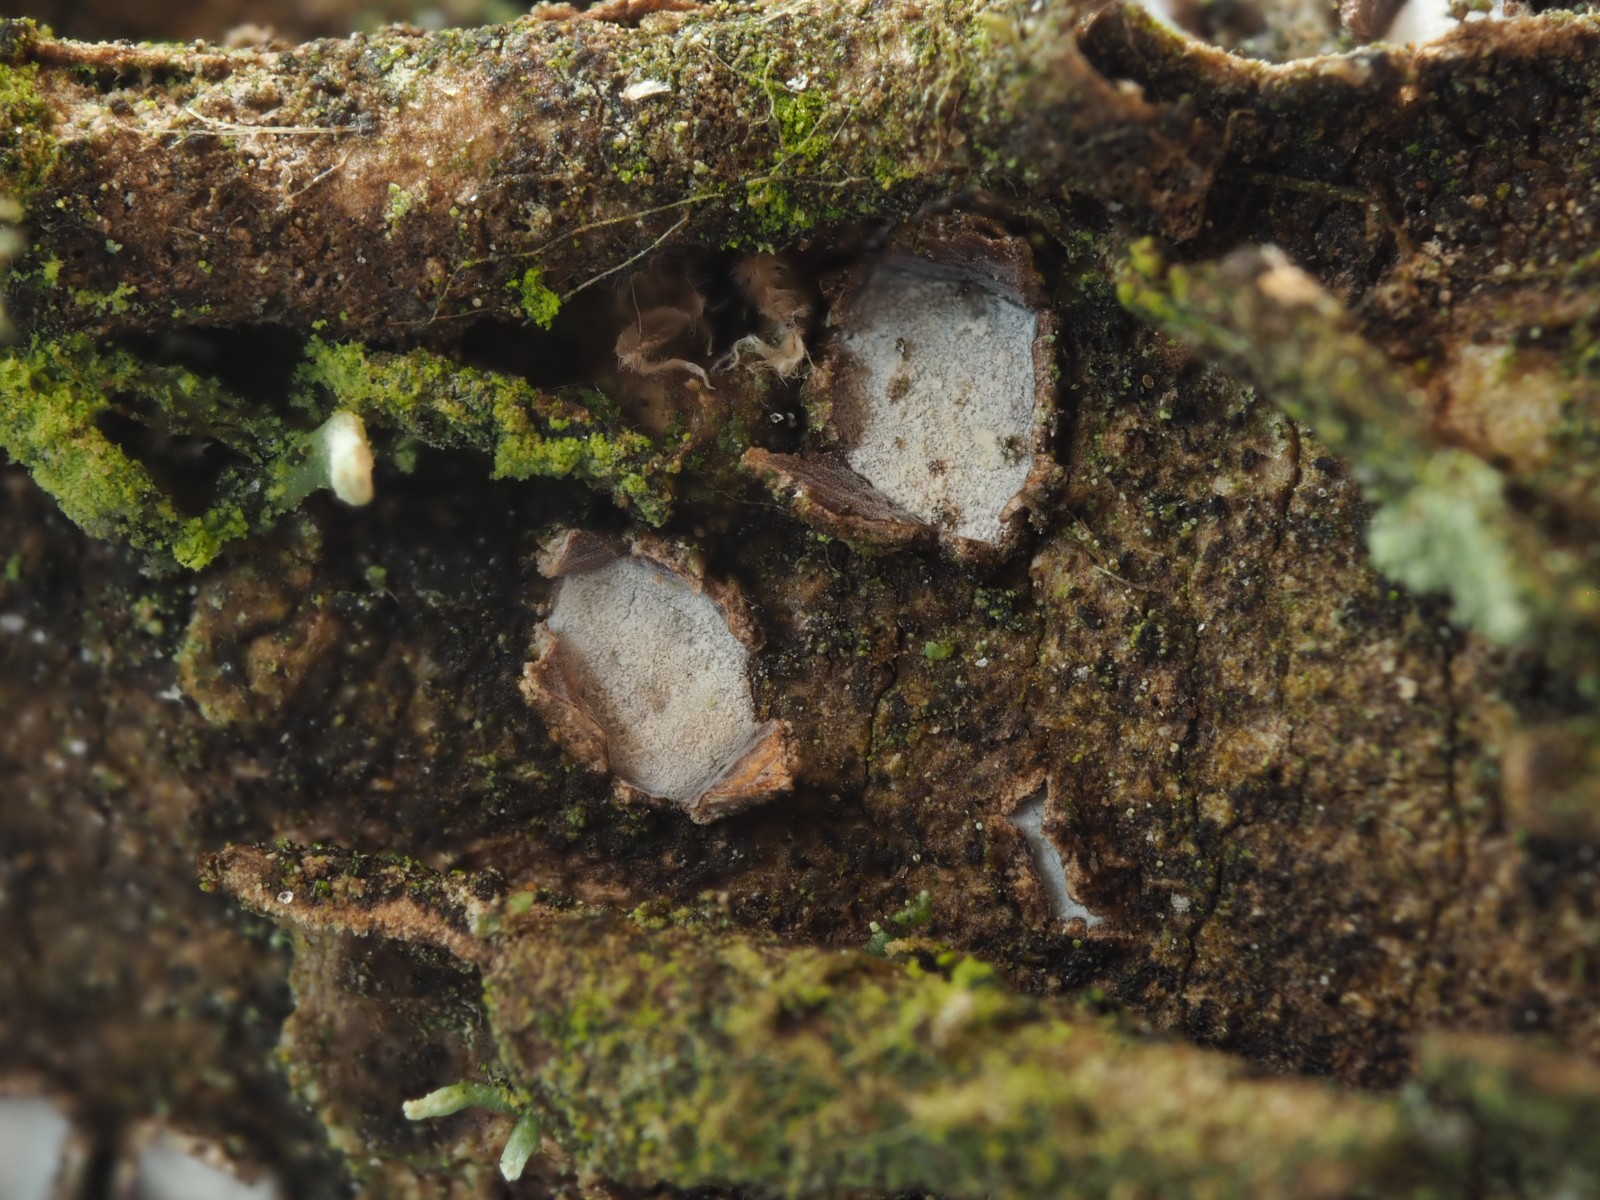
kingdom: Fungi
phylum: Ascomycota
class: Leotiomycetes
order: Chaetomellales
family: Marthamycetaceae
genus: Propolis
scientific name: Propolis farinosa
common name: almindelig vedsprængerskive
